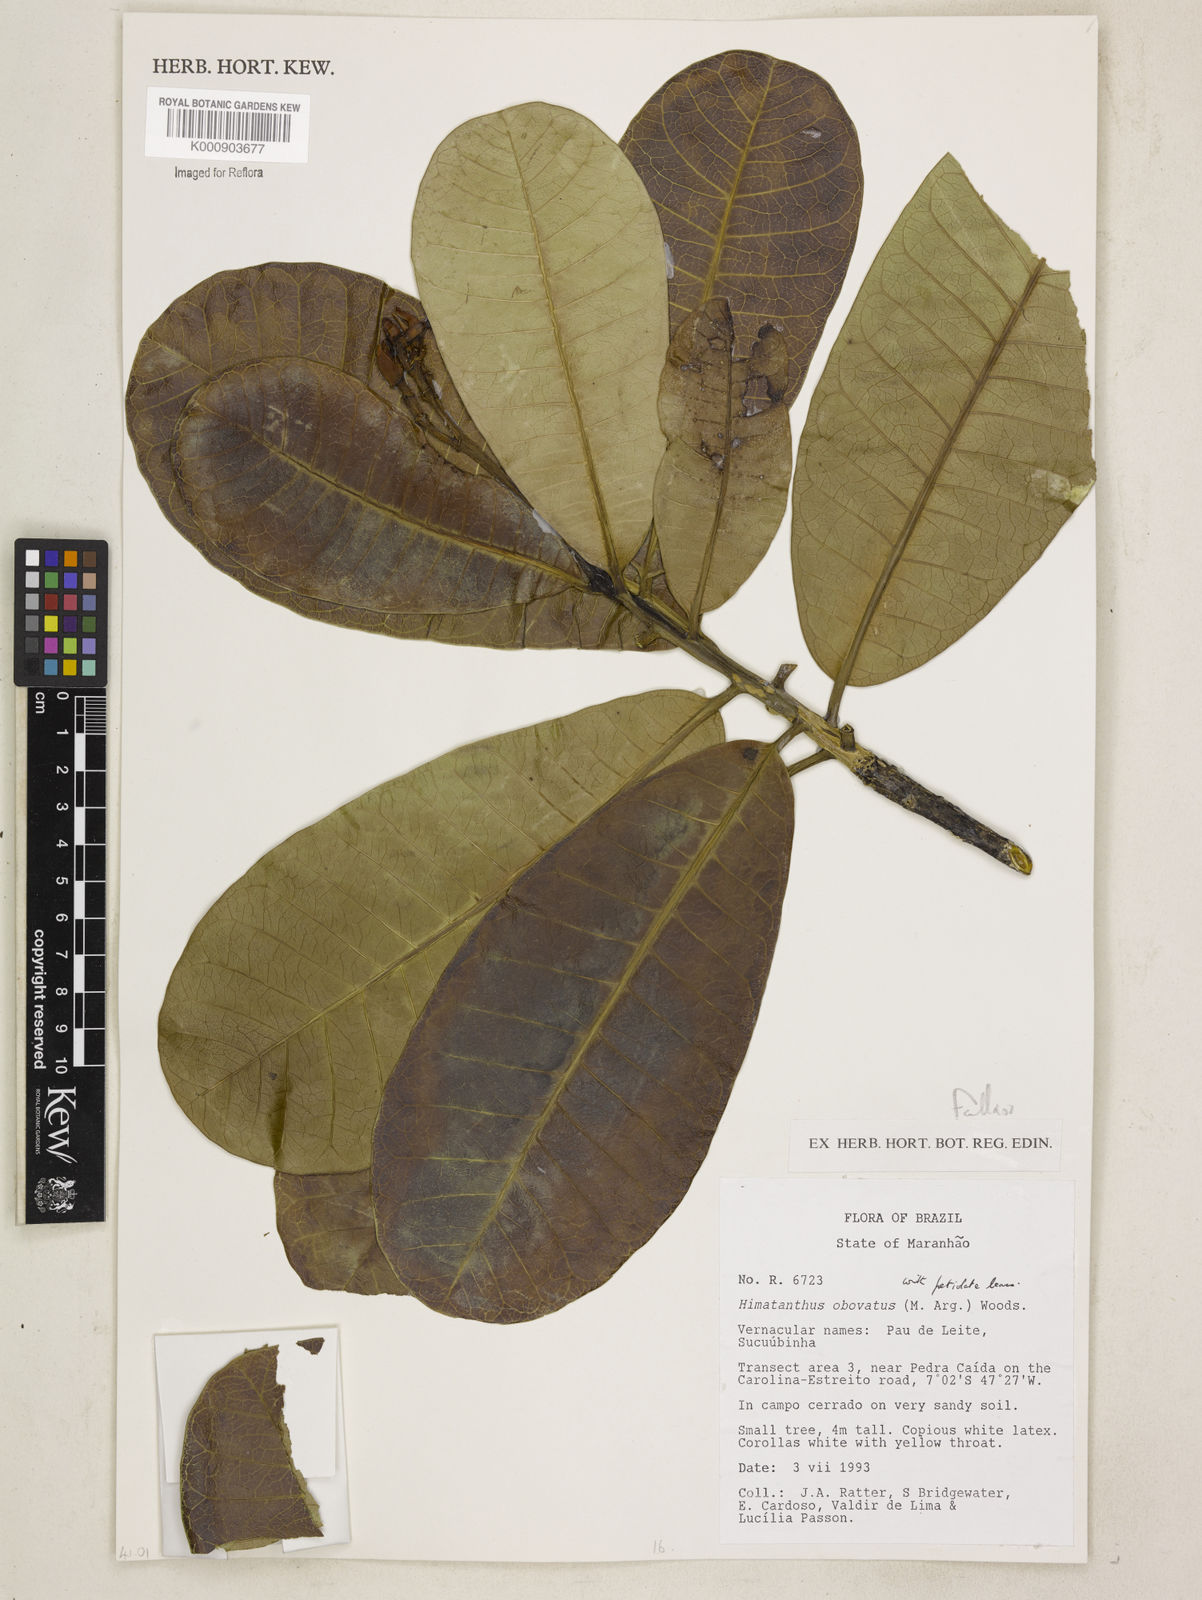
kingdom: Plantae
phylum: Tracheophyta
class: Magnoliopsida
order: Gentianales
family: Apocynaceae
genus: Himatanthus
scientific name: Himatanthus
